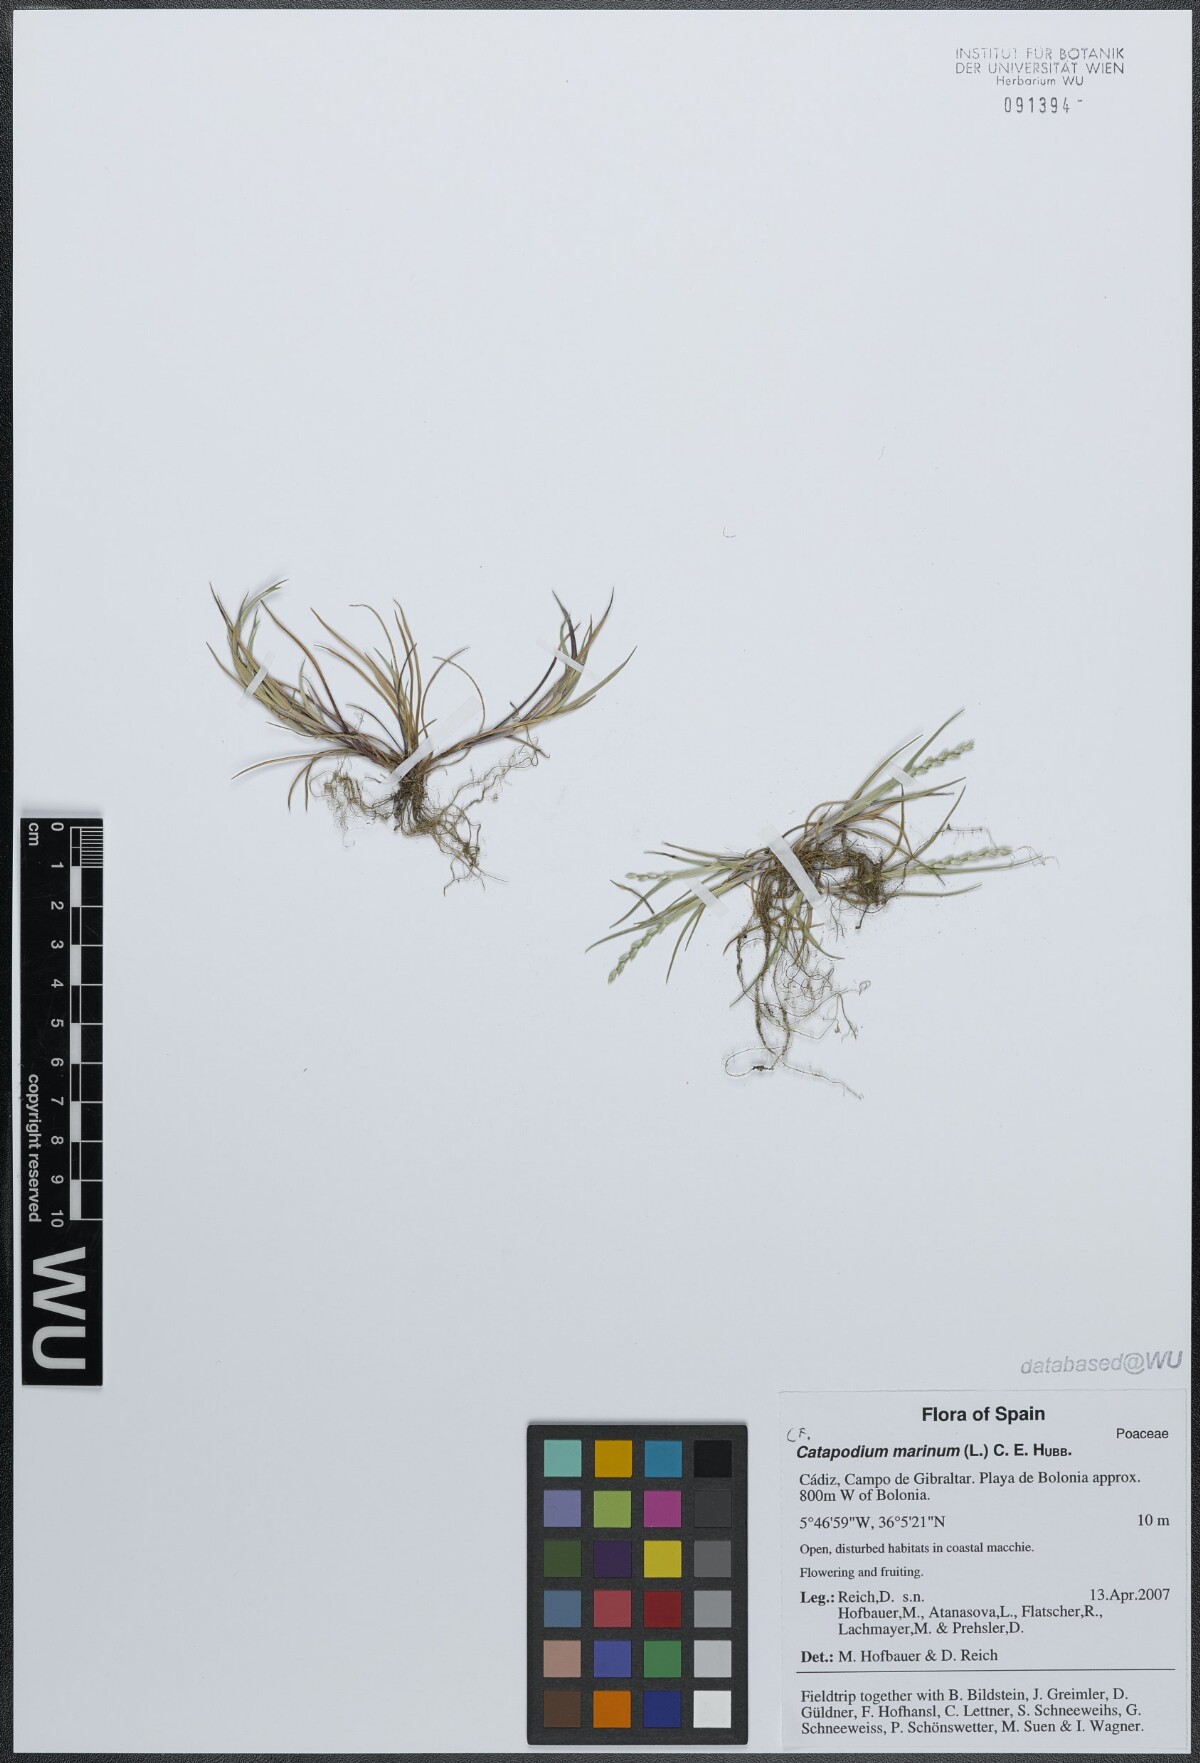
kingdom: Plantae
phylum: Tracheophyta
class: Liliopsida
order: Poales
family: Poaceae
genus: Catapodium
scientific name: Catapodium marinum
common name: Sea fern-grass
